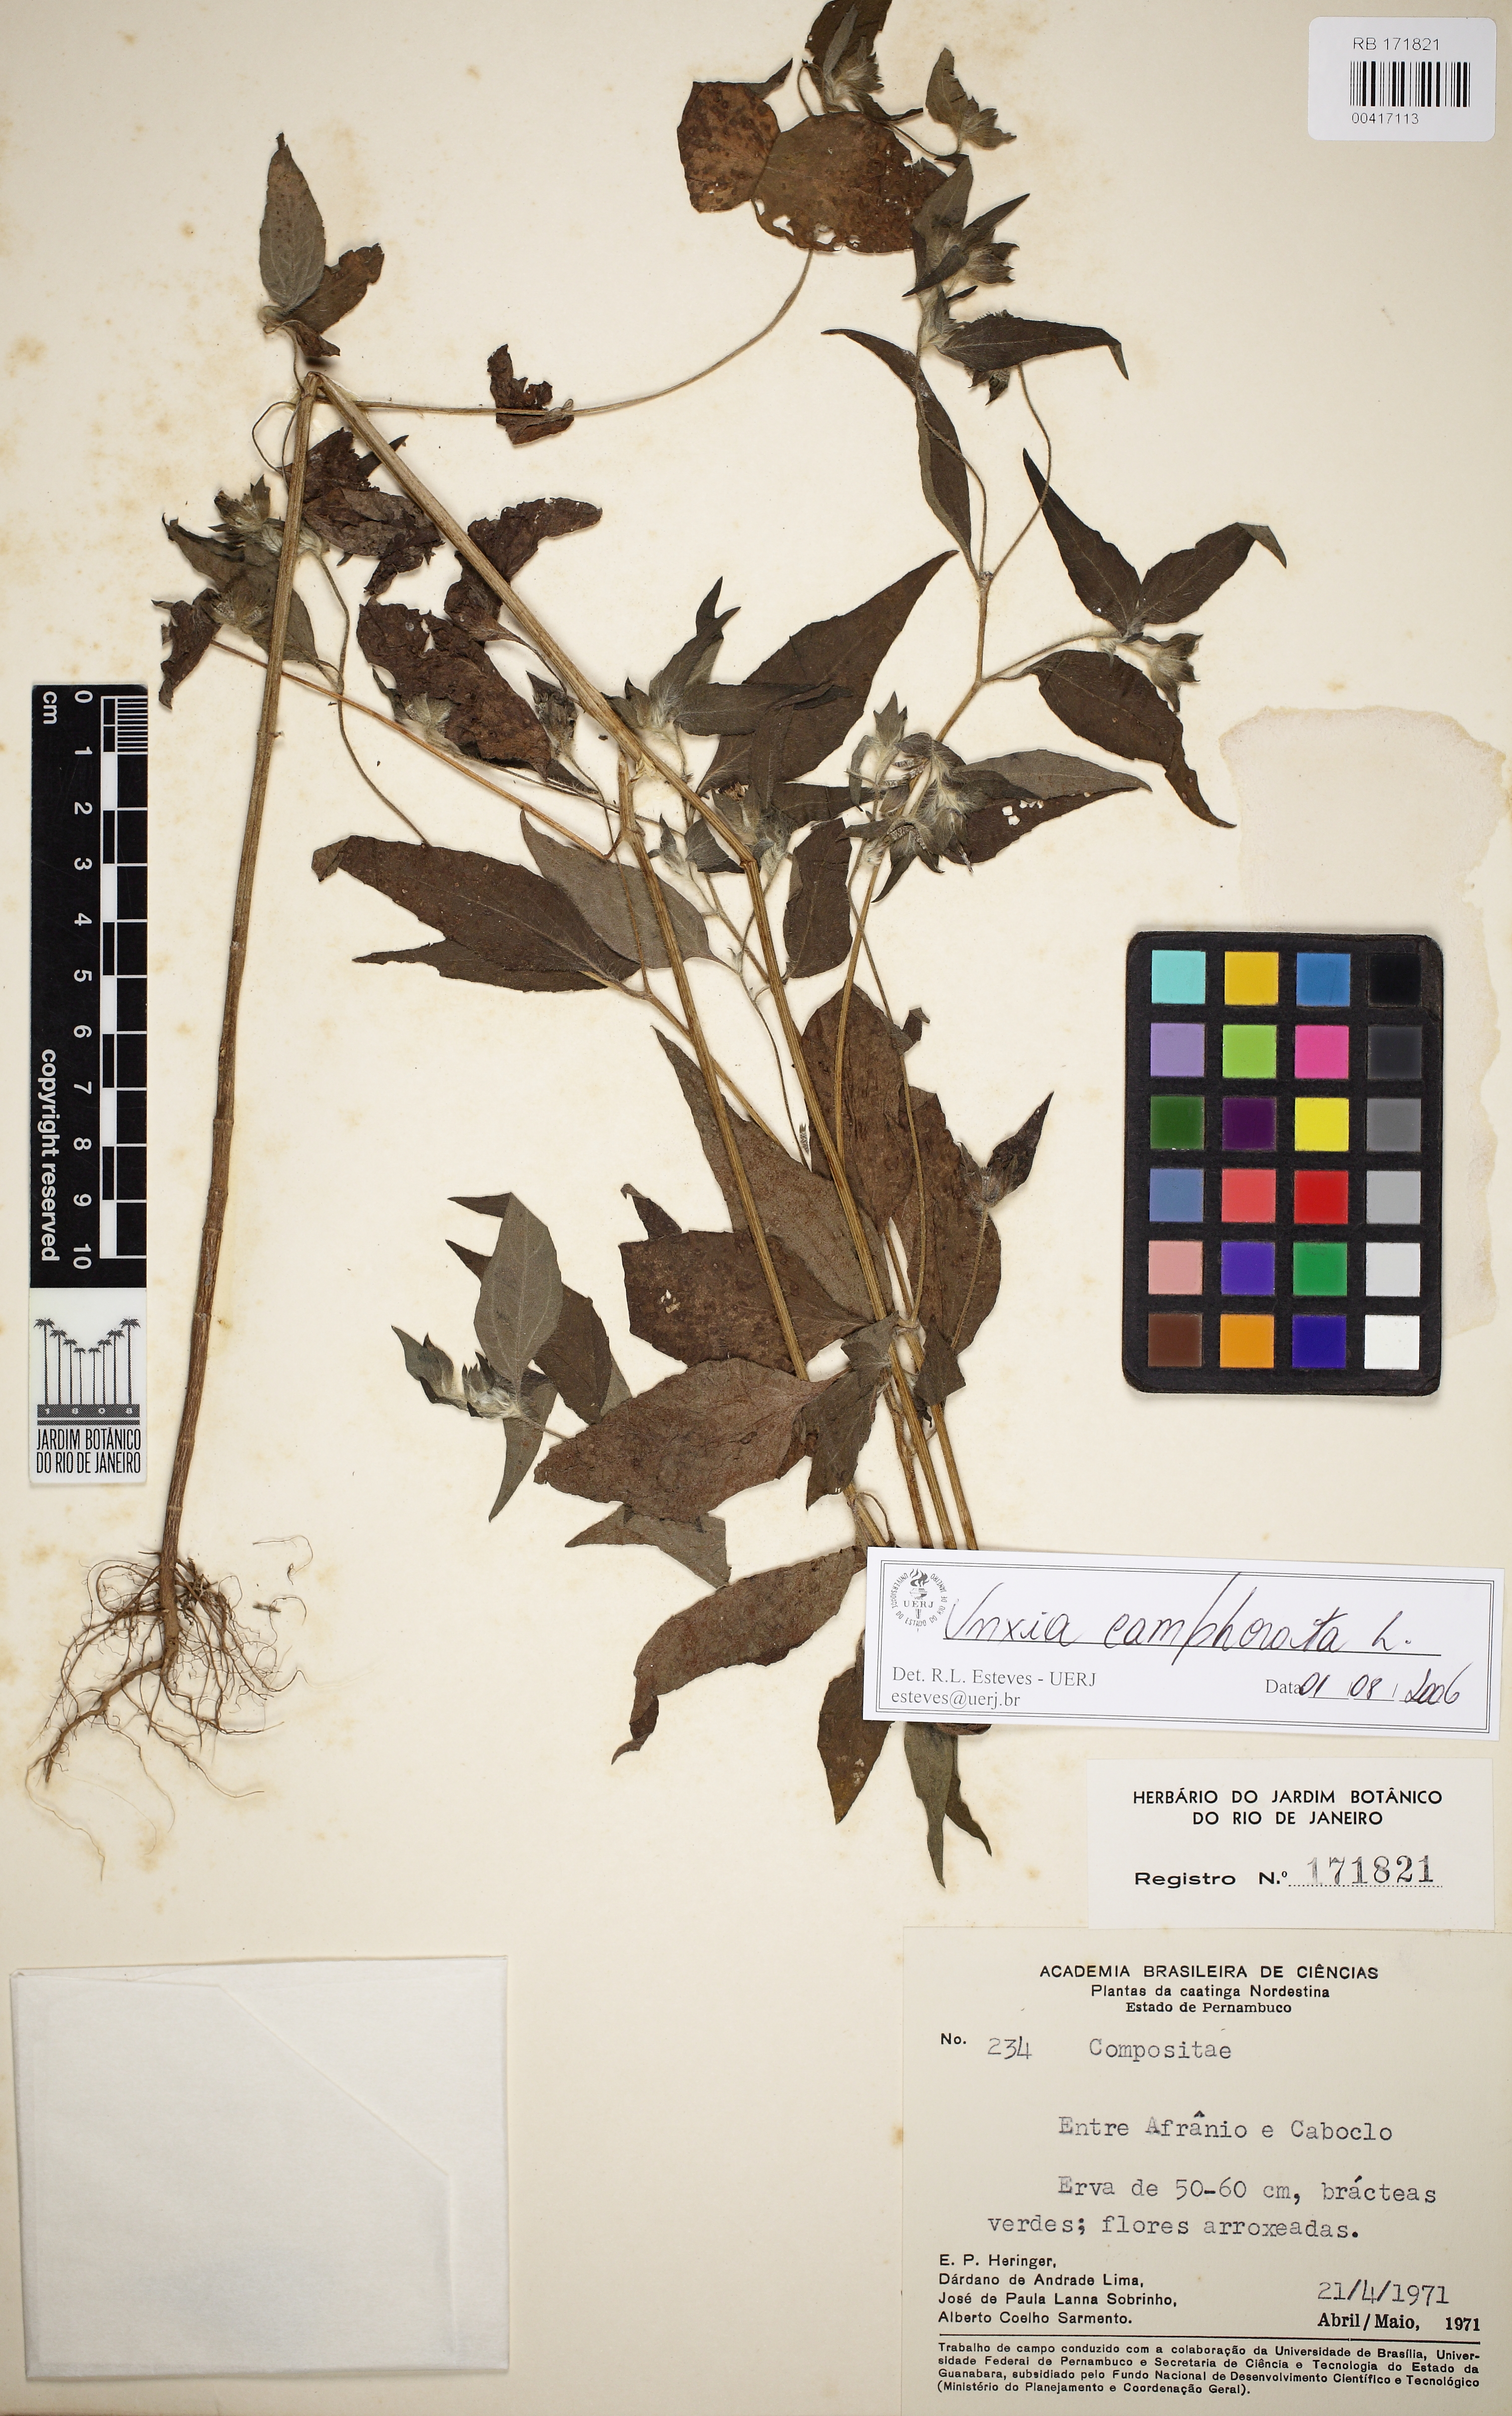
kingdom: Plantae
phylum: Tracheophyta
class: Magnoliopsida
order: Asterales
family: Asteraceae
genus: Lagascea
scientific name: Lagascea mollis
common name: Silkleaf
